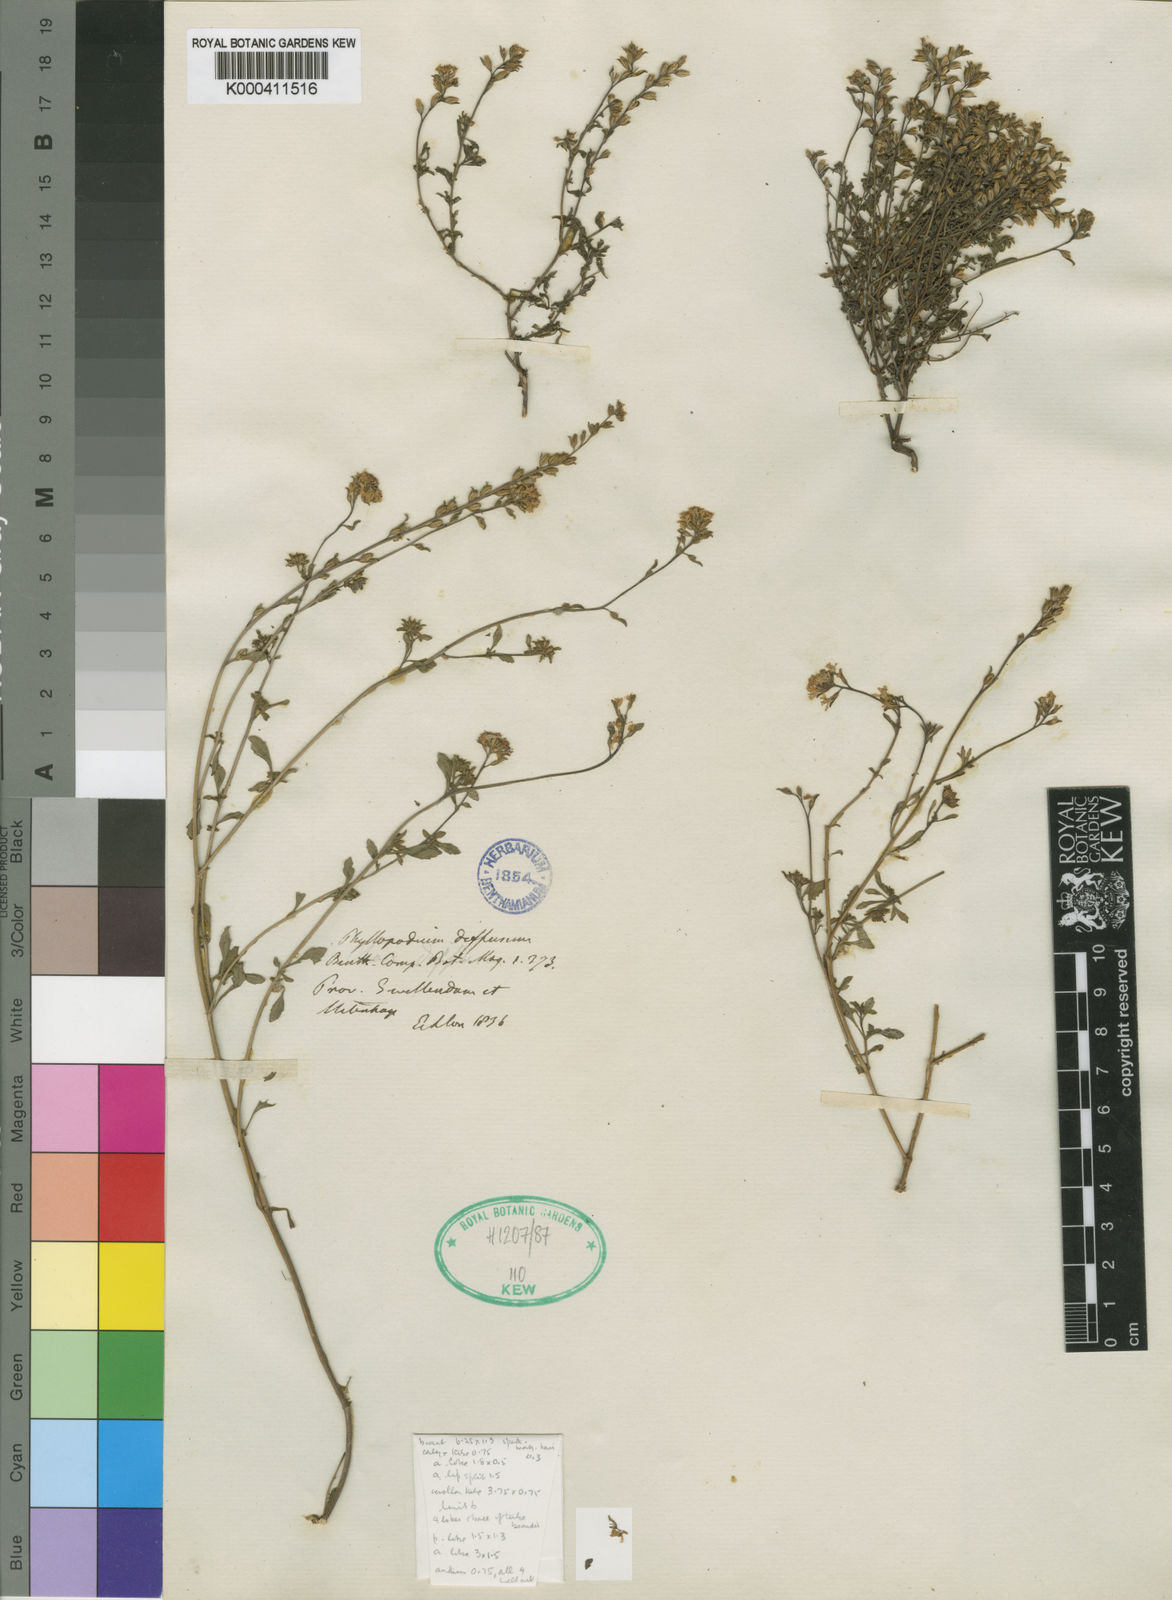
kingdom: Plantae
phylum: Tracheophyta
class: Magnoliopsida
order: Lamiales
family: Scrophulariaceae
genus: Phyllopodium
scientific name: Phyllopodium diffusum
